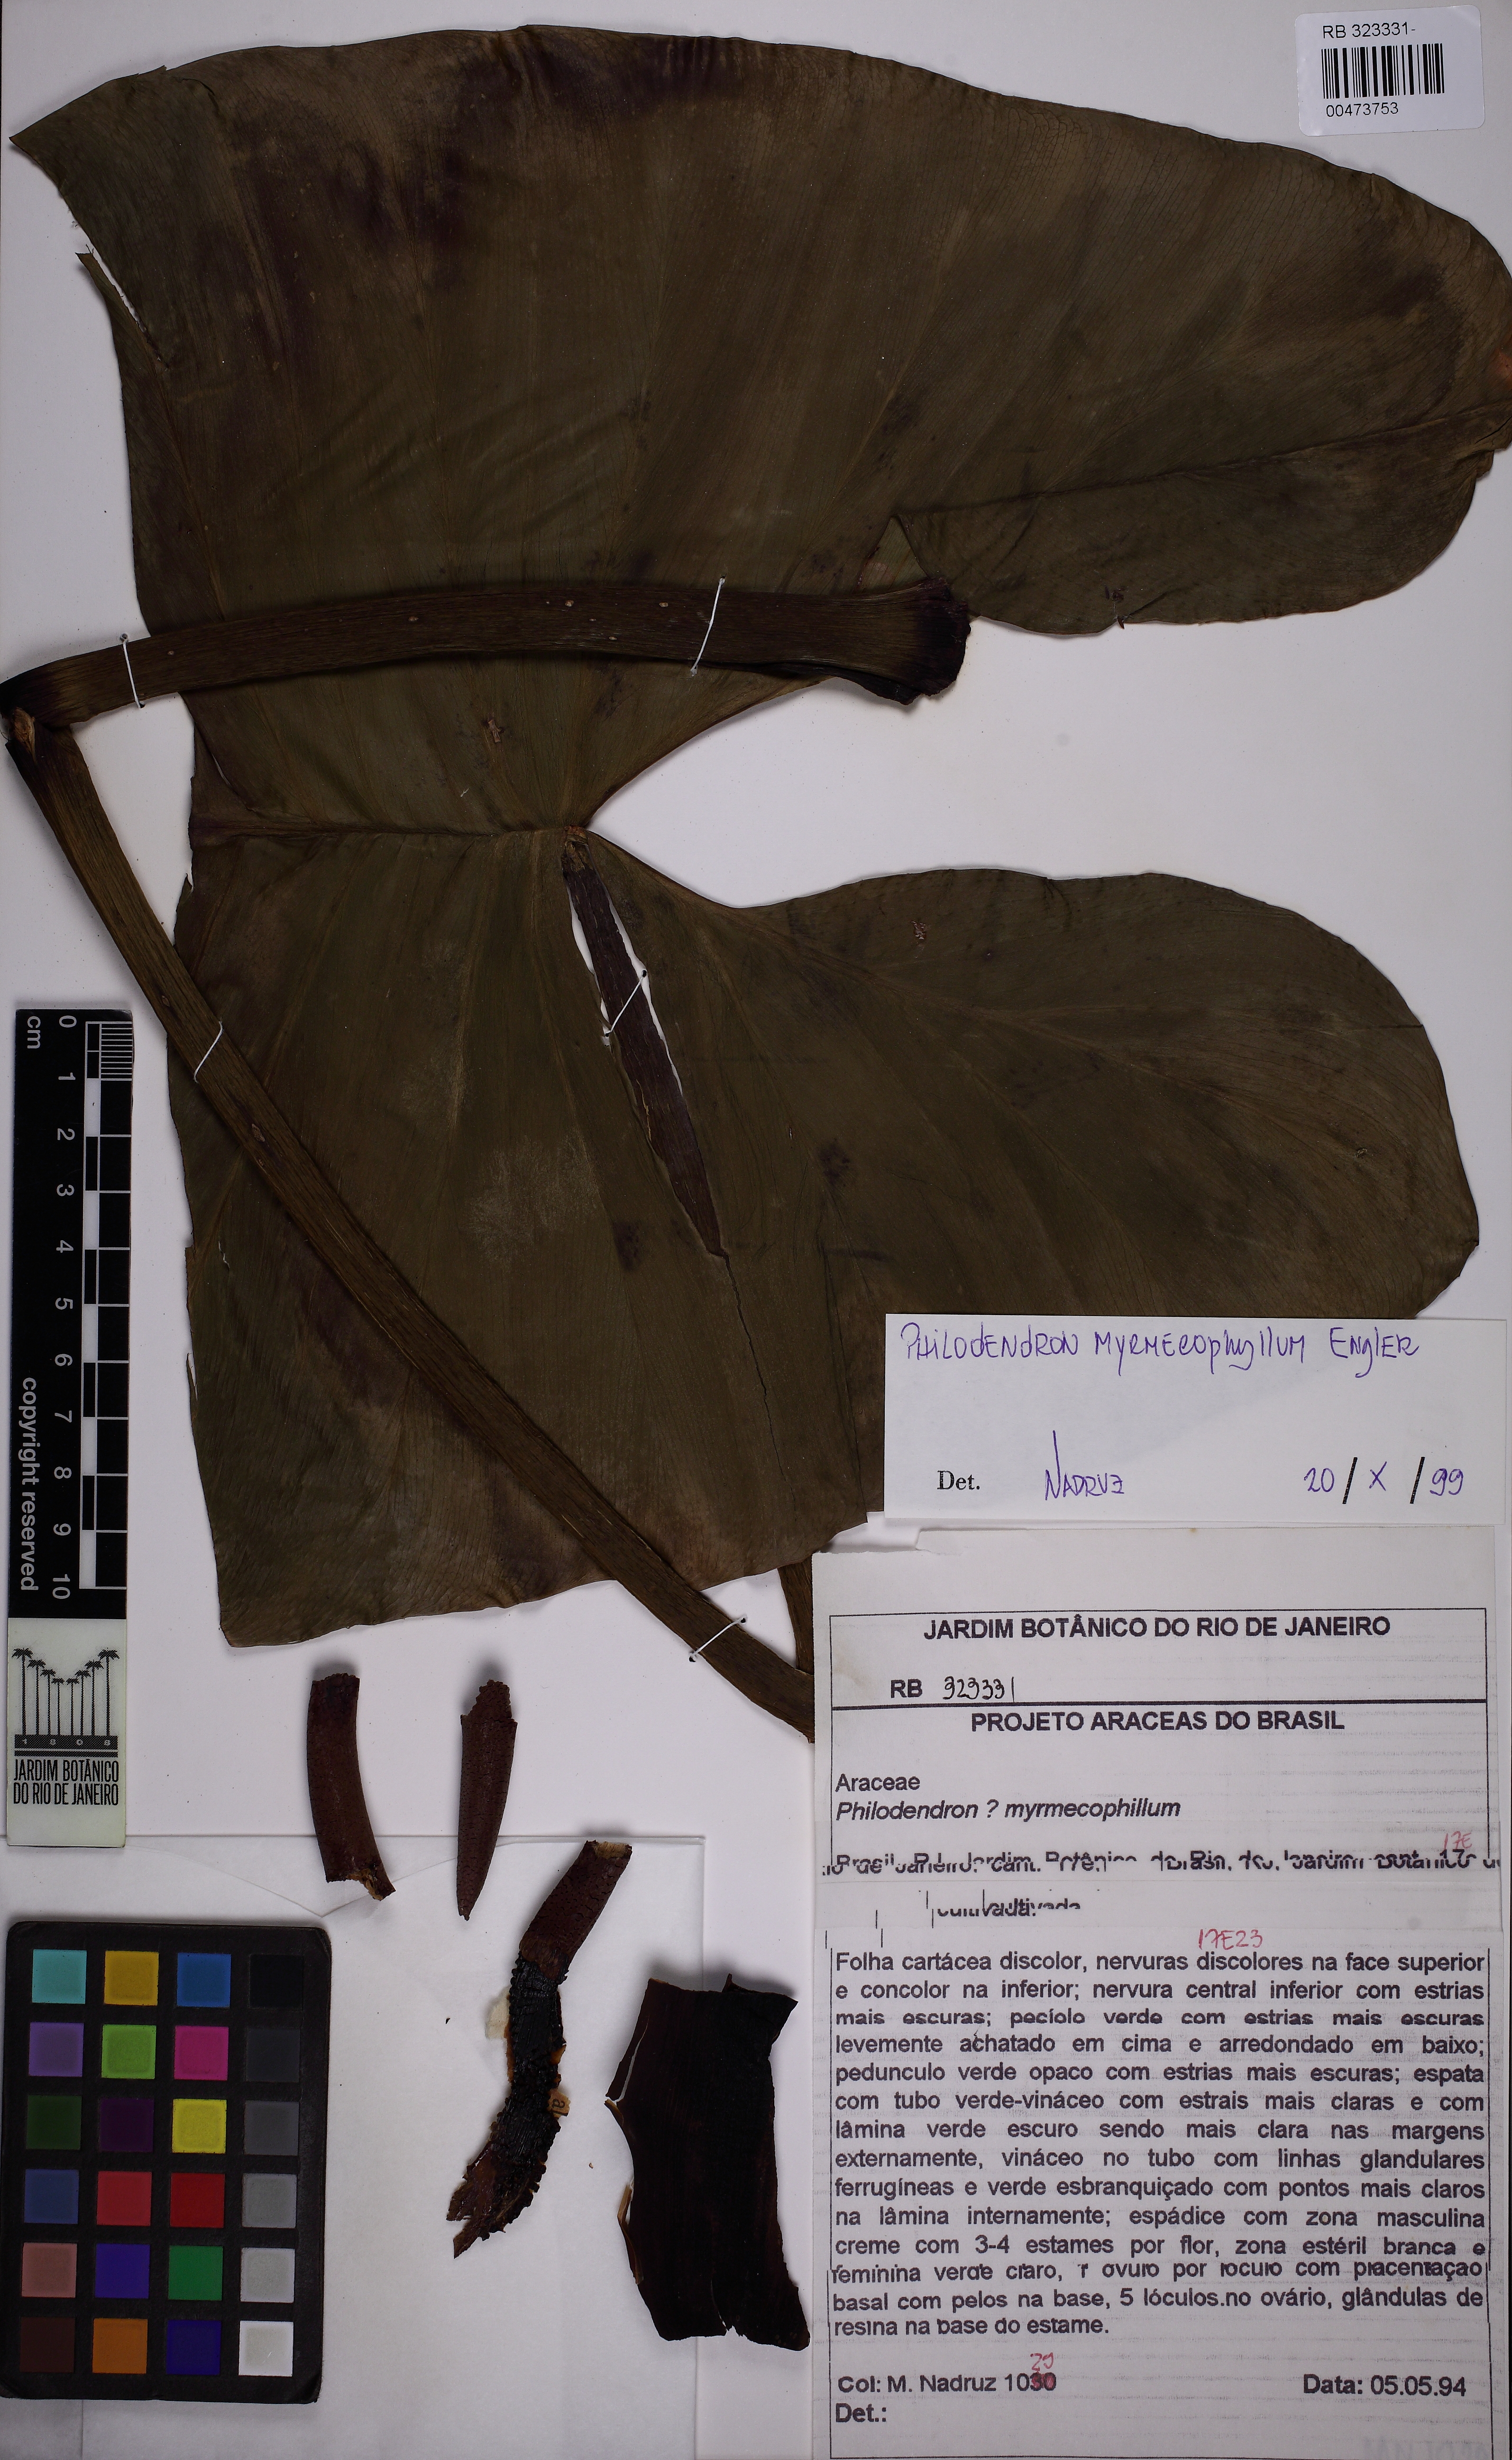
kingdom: Plantae
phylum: Tracheophyta
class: Liliopsida
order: Alismatales
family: Araceae
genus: Philodendron
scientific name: Philodendron myrmecophilum
